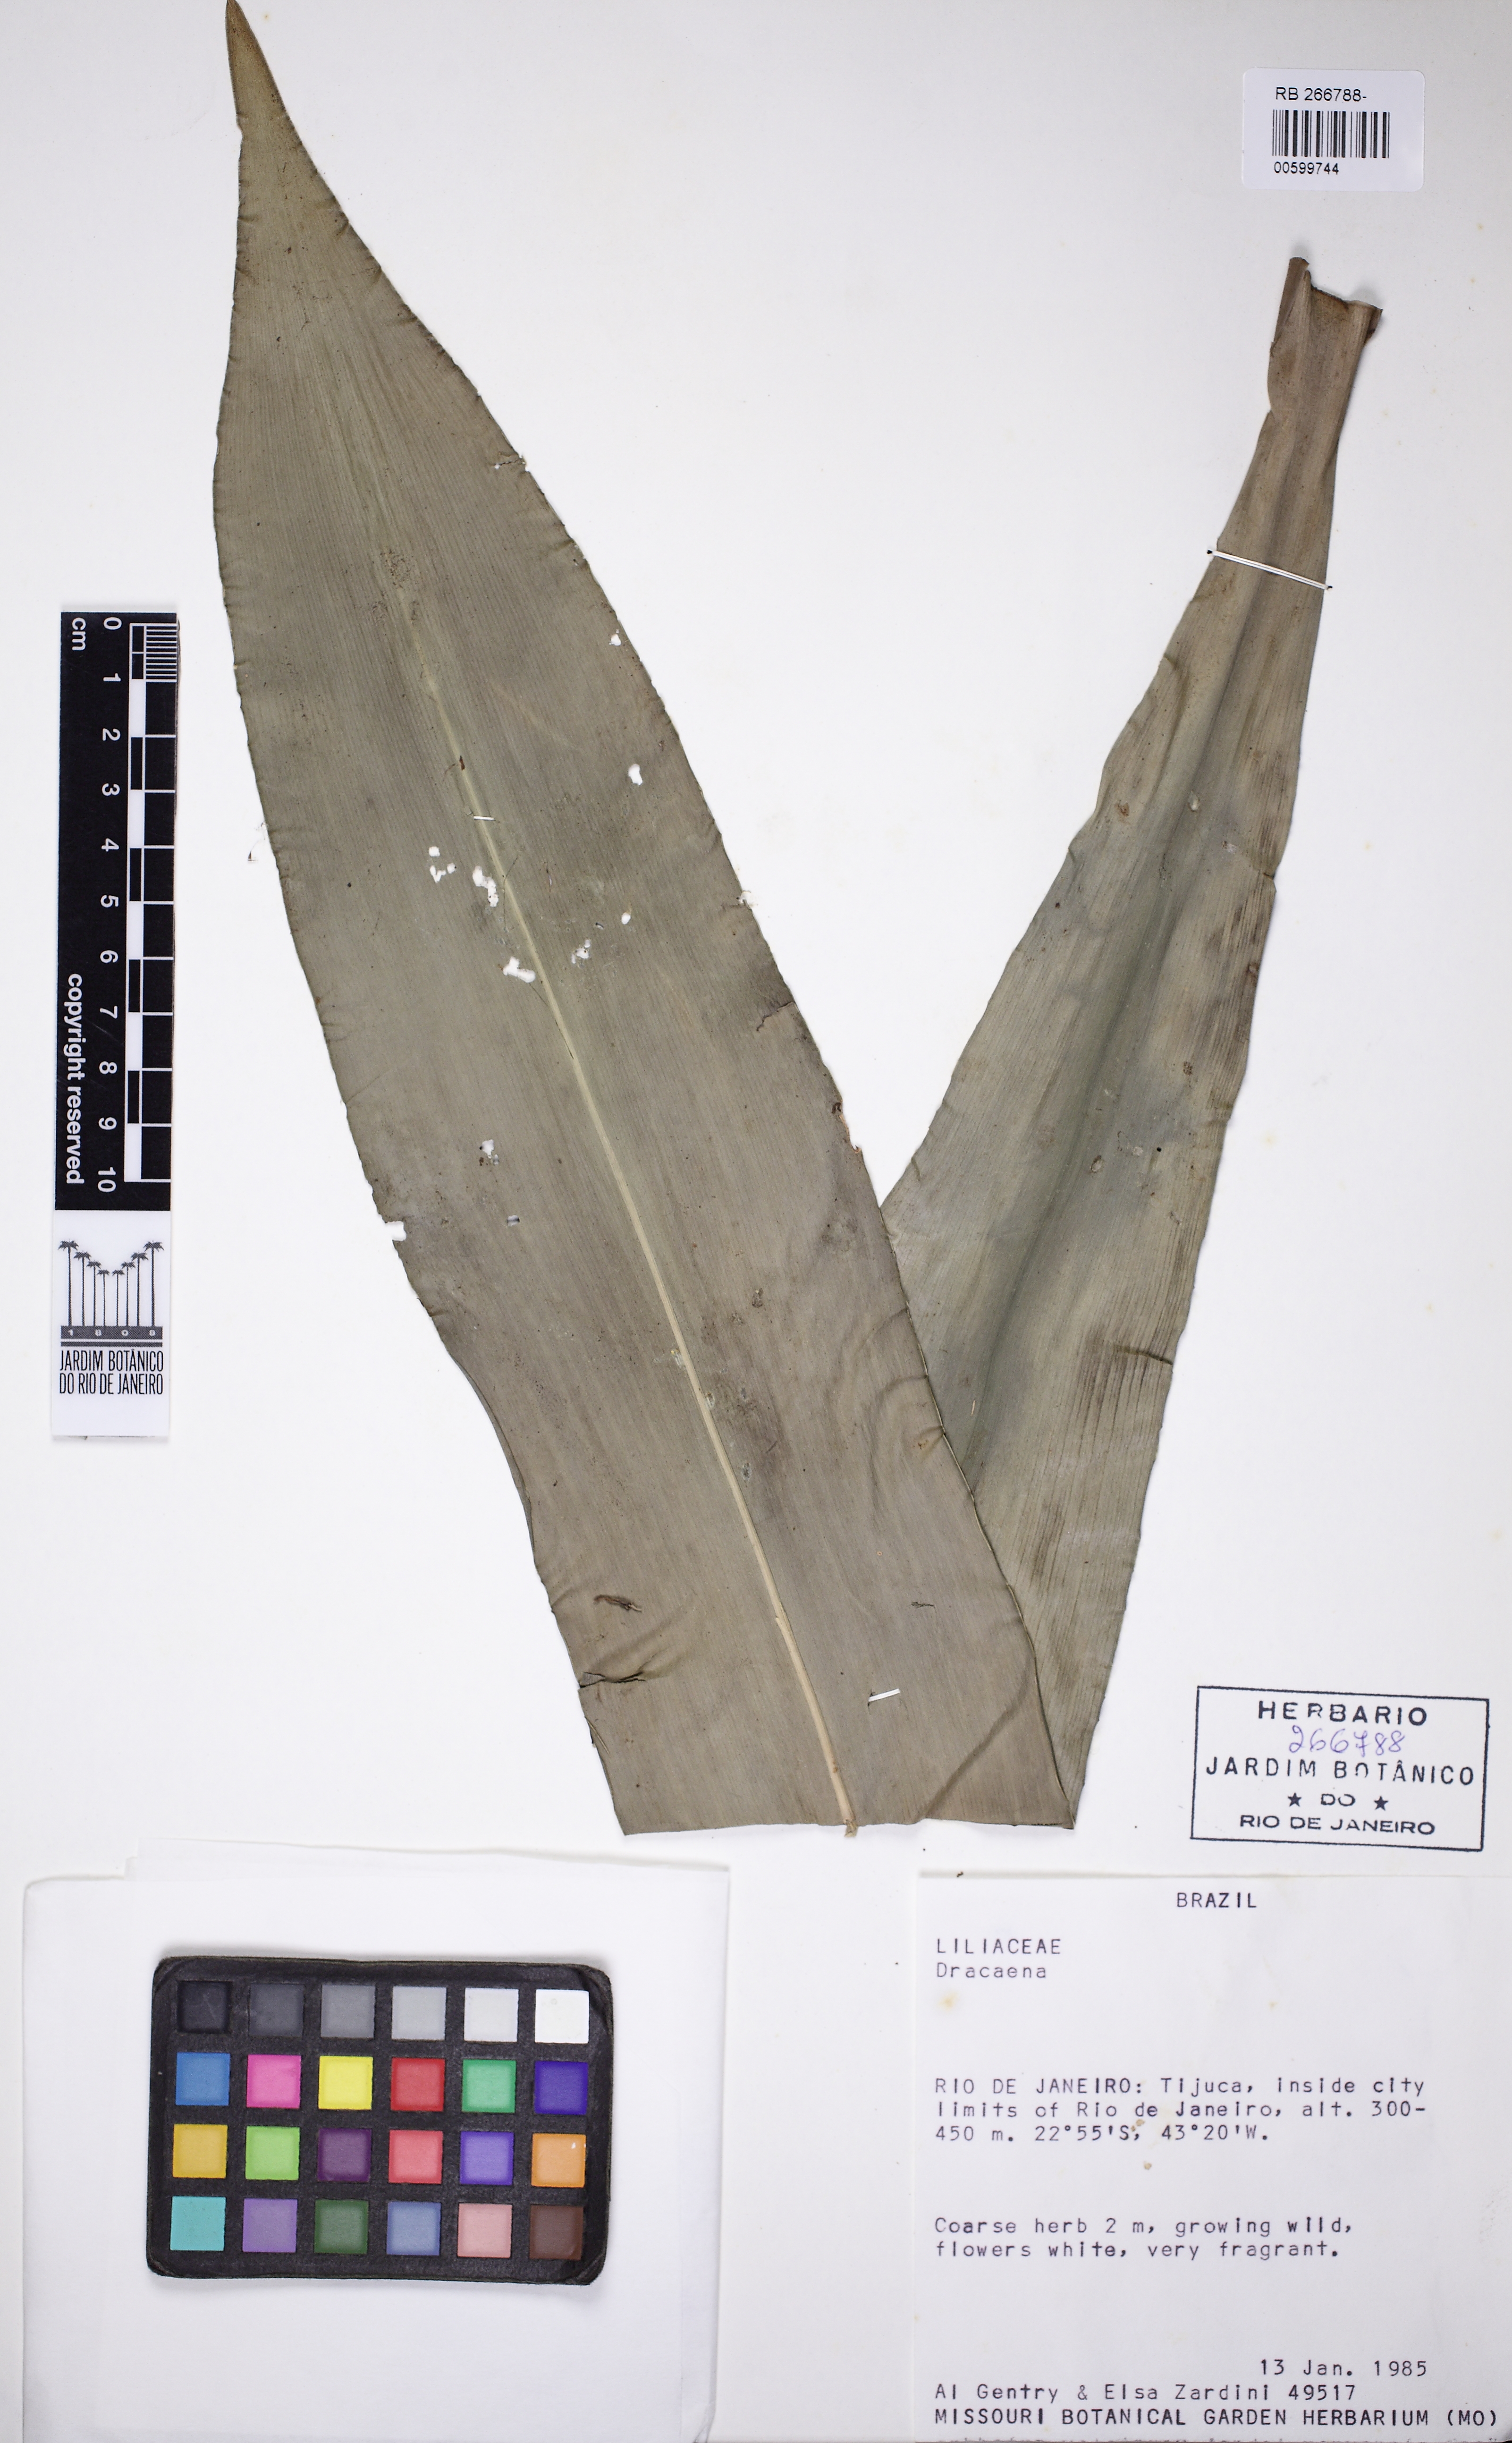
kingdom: Plantae
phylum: Tracheophyta
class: Liliopsida
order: Asparagales
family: Asparagaceae
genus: Dracaena
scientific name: Dracaena
